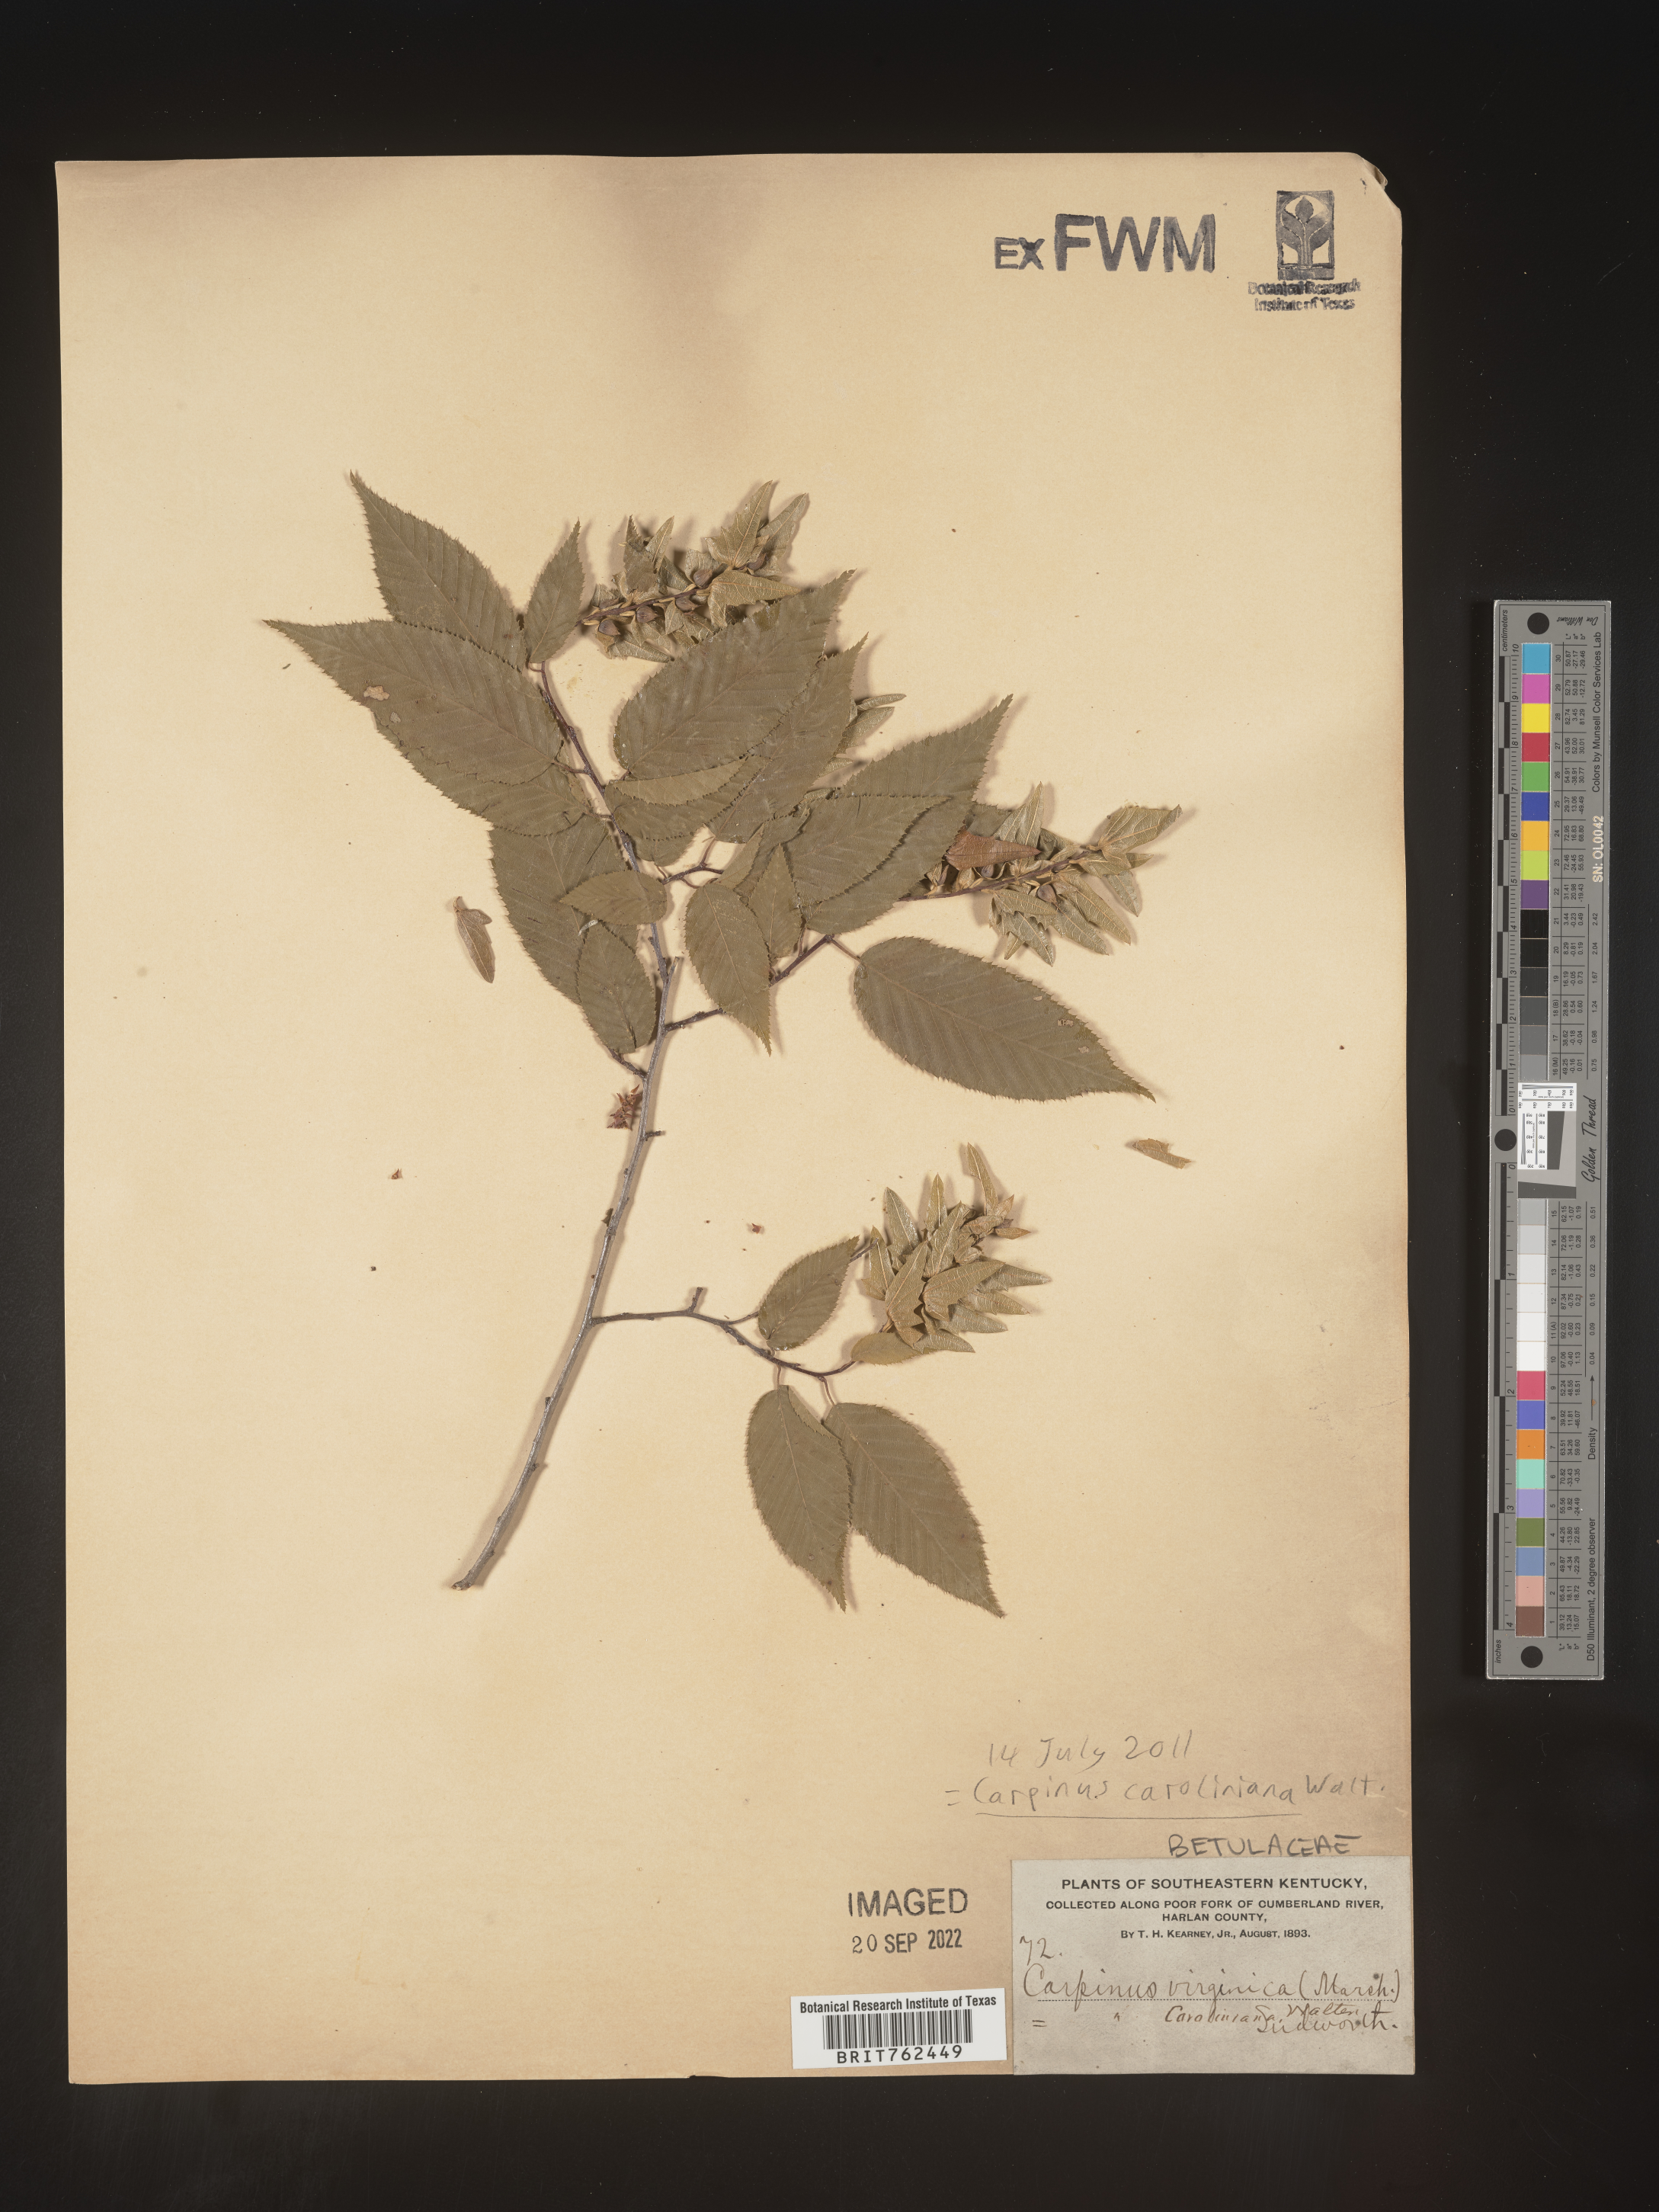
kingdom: Plantae
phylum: Tracheophyta
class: Magnoliopsida
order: Fagales
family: Betulaceae
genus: Carpinus
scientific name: Carpinus caroliniana
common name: American hornbeam
